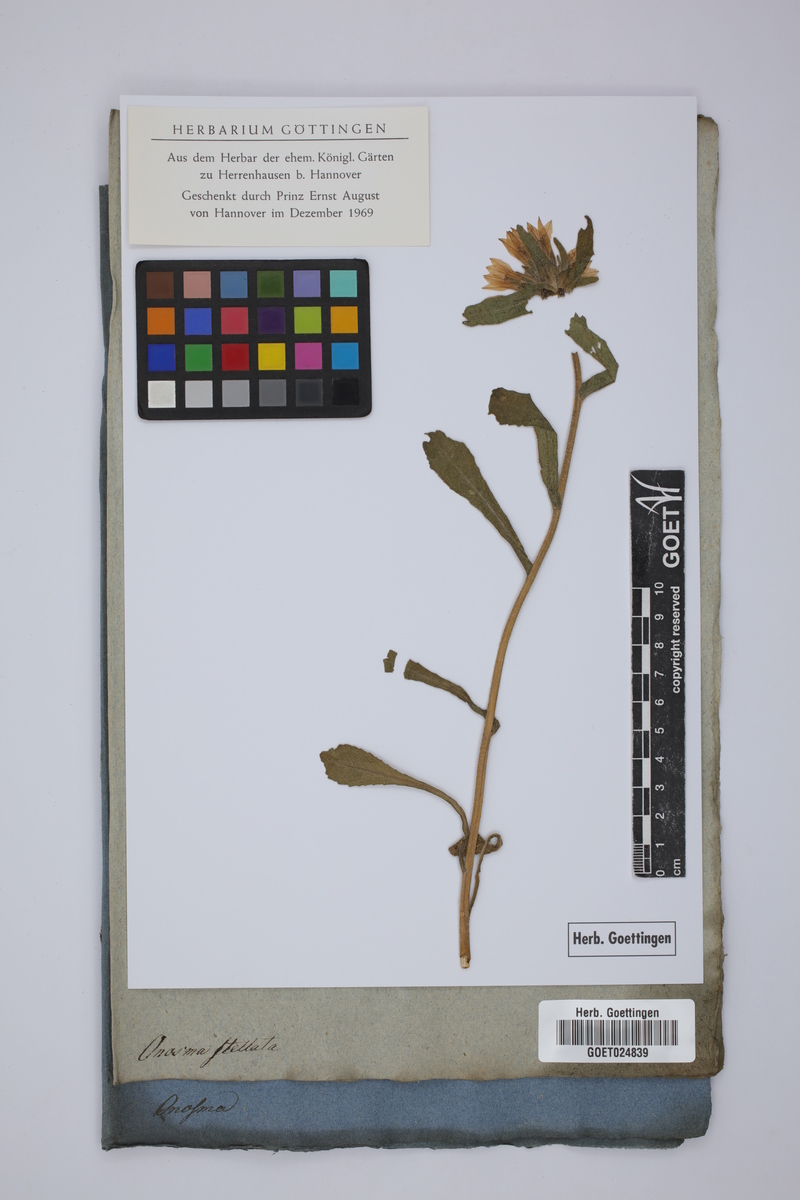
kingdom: Plantae
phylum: Tracheophyta
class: Magnoliopsida
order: Boraginales
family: Boraginaceae
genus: Onosma
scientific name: Onosma stellulata
